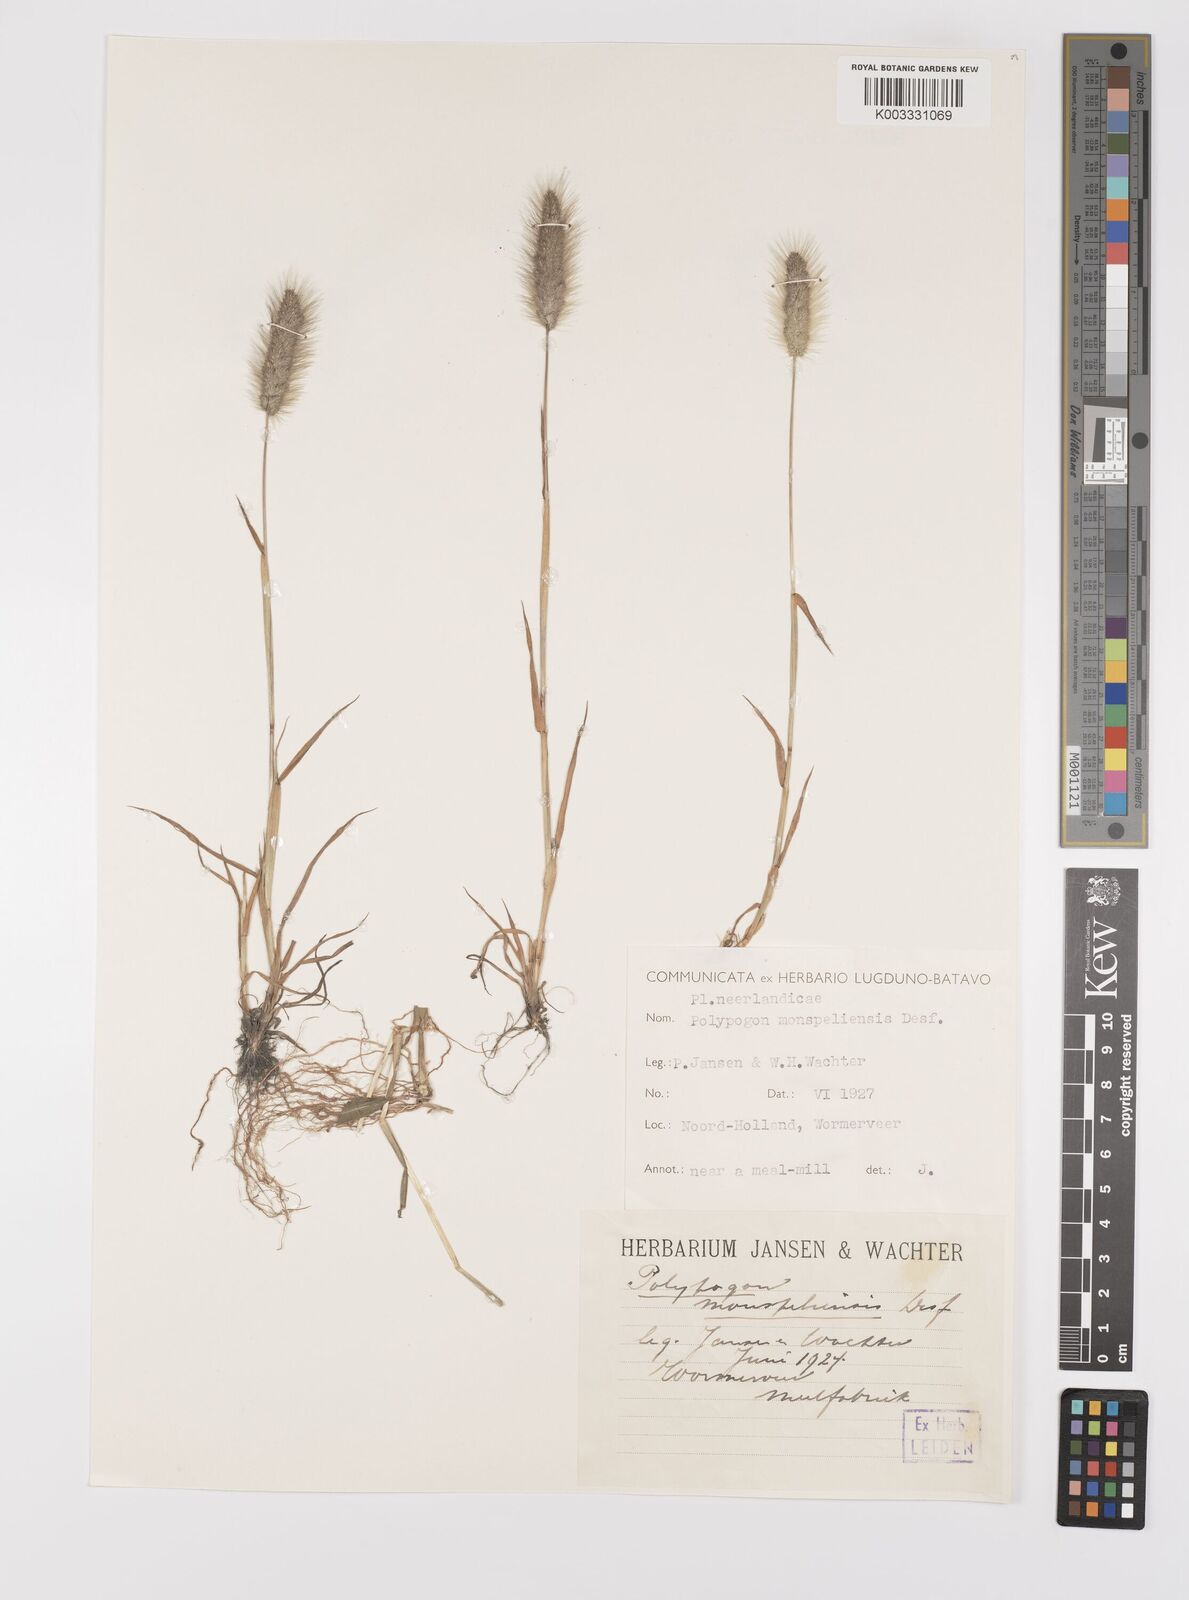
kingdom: Plantae
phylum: Tracheophyta
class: Liliopsida
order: Poales
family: Poaceae
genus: Polypogon
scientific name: Polypogon monspeliensis
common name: Annual rabbitsfoot grass
